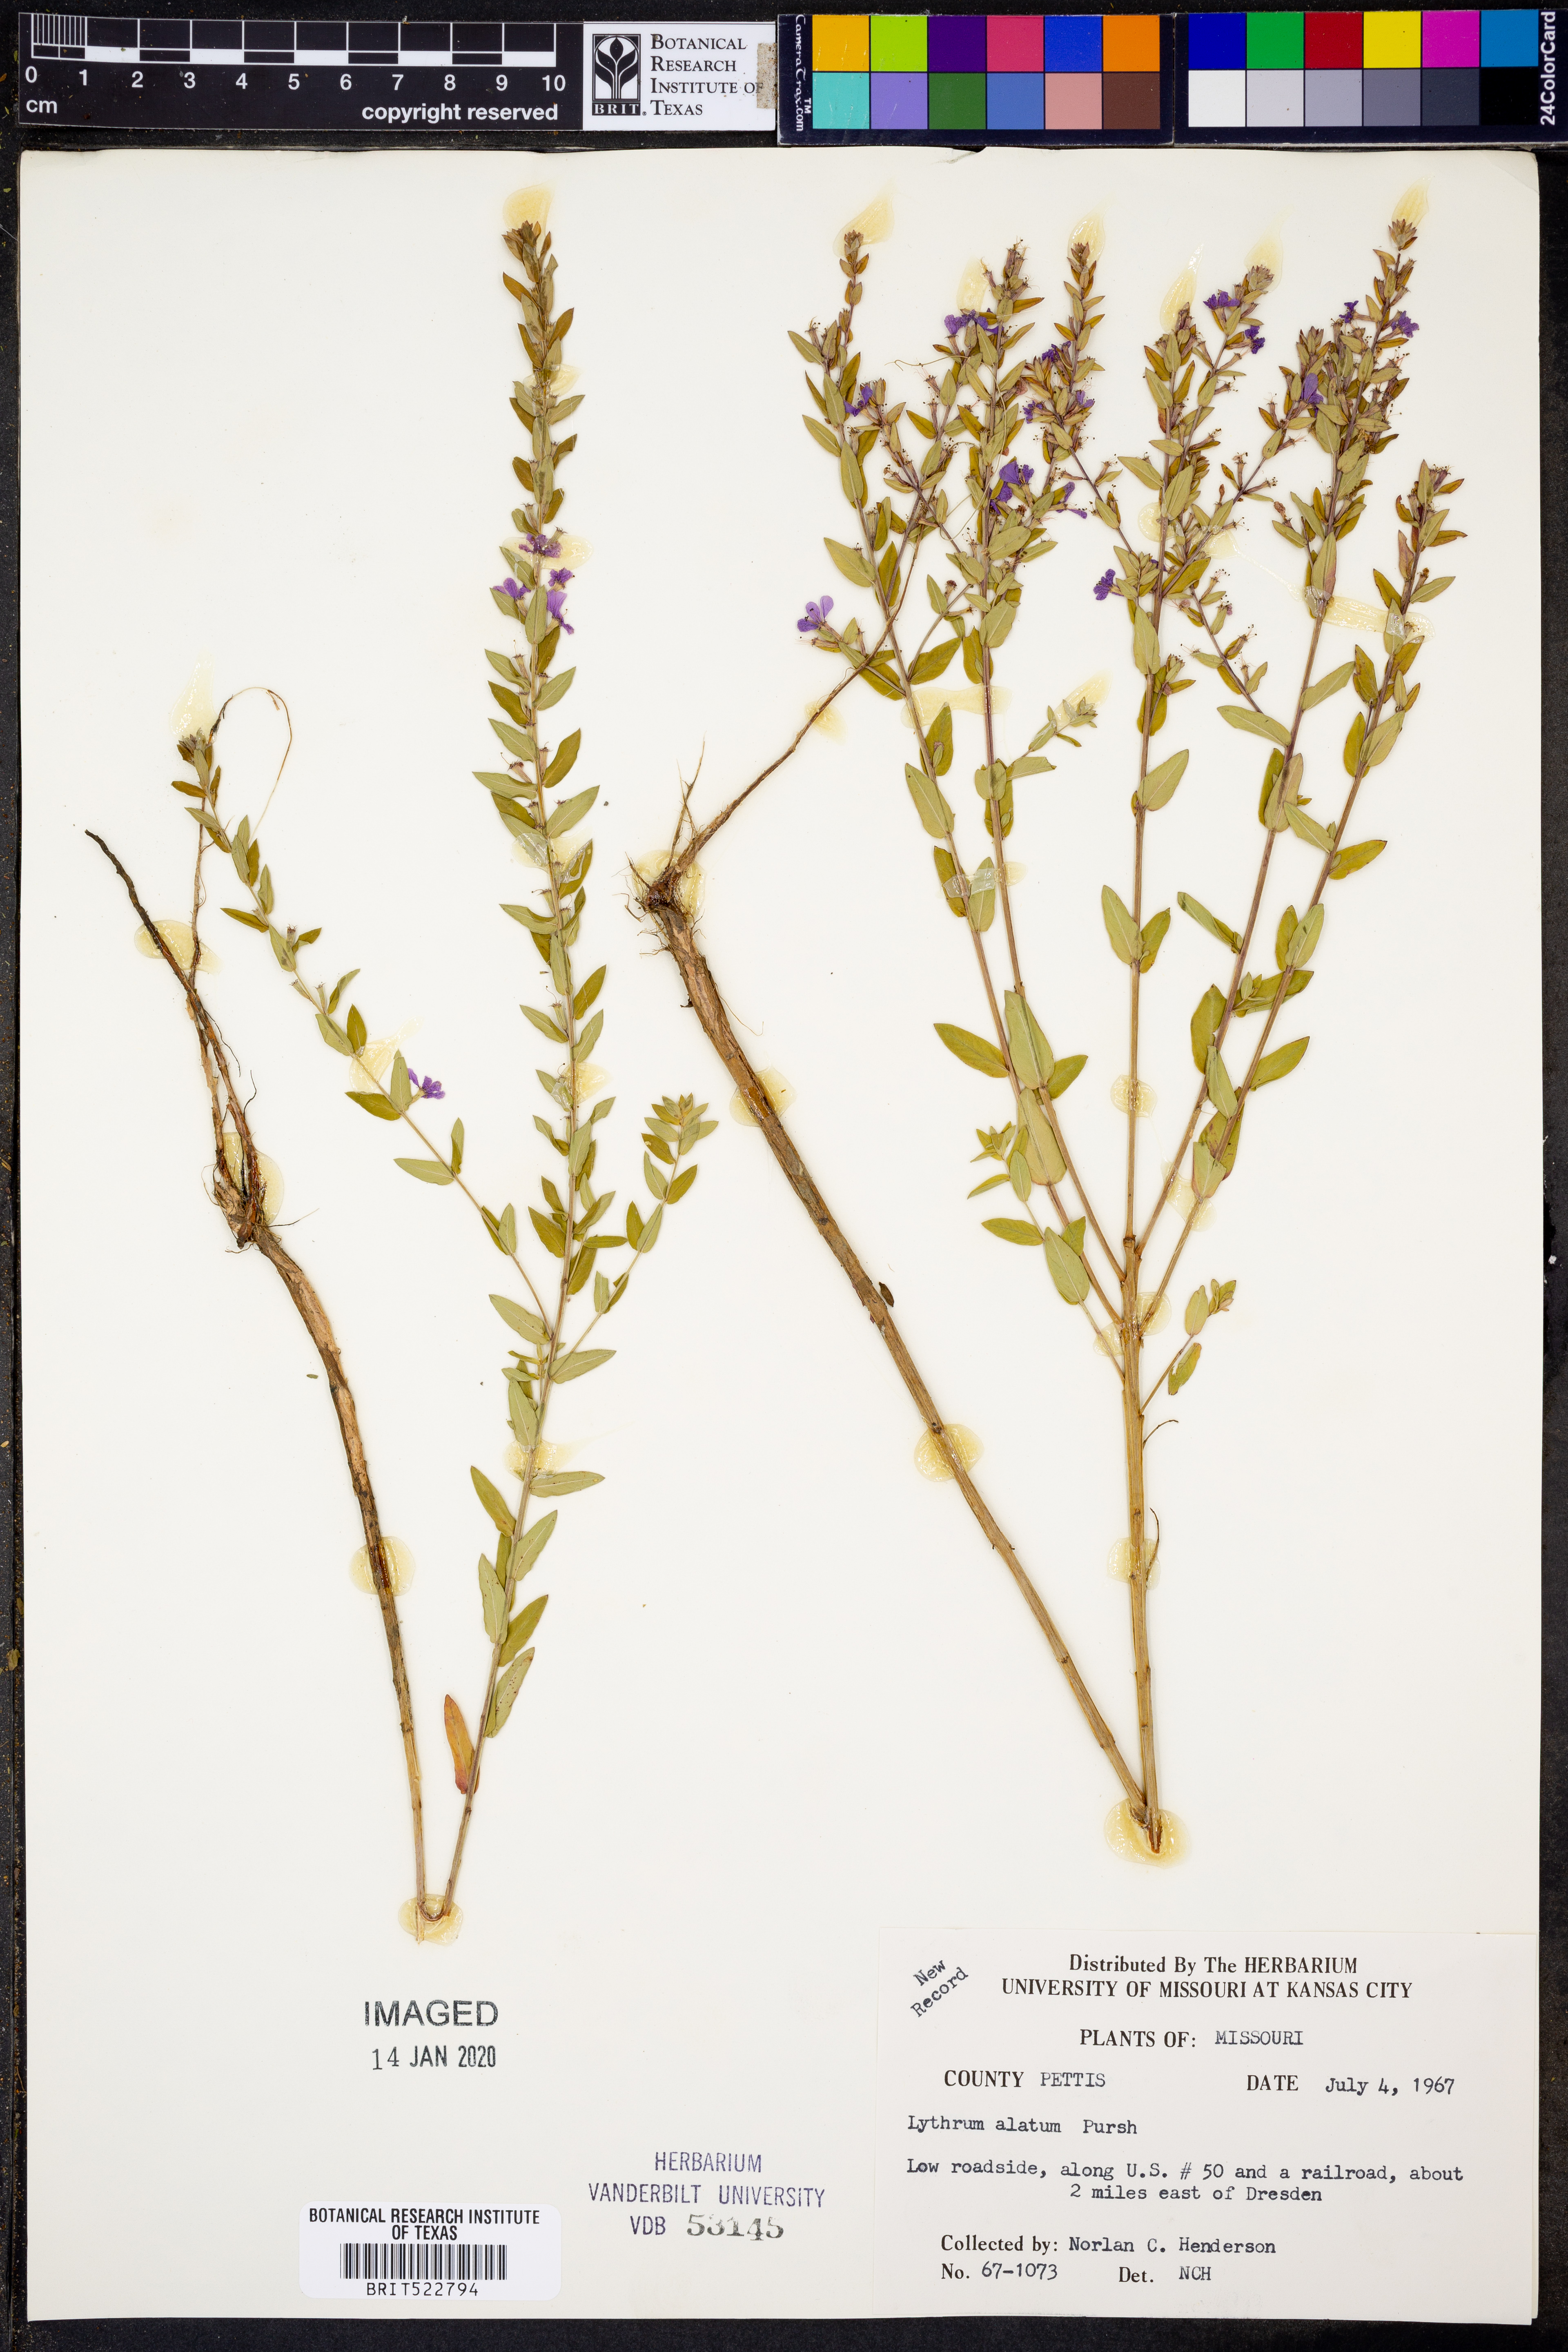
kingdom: Plantae
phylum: Tracheophyta
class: Magnoliopsida
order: Myrtales
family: Lythraceae
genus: Lythrum
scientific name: Lythrum alatum
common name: Winged loosestrife
